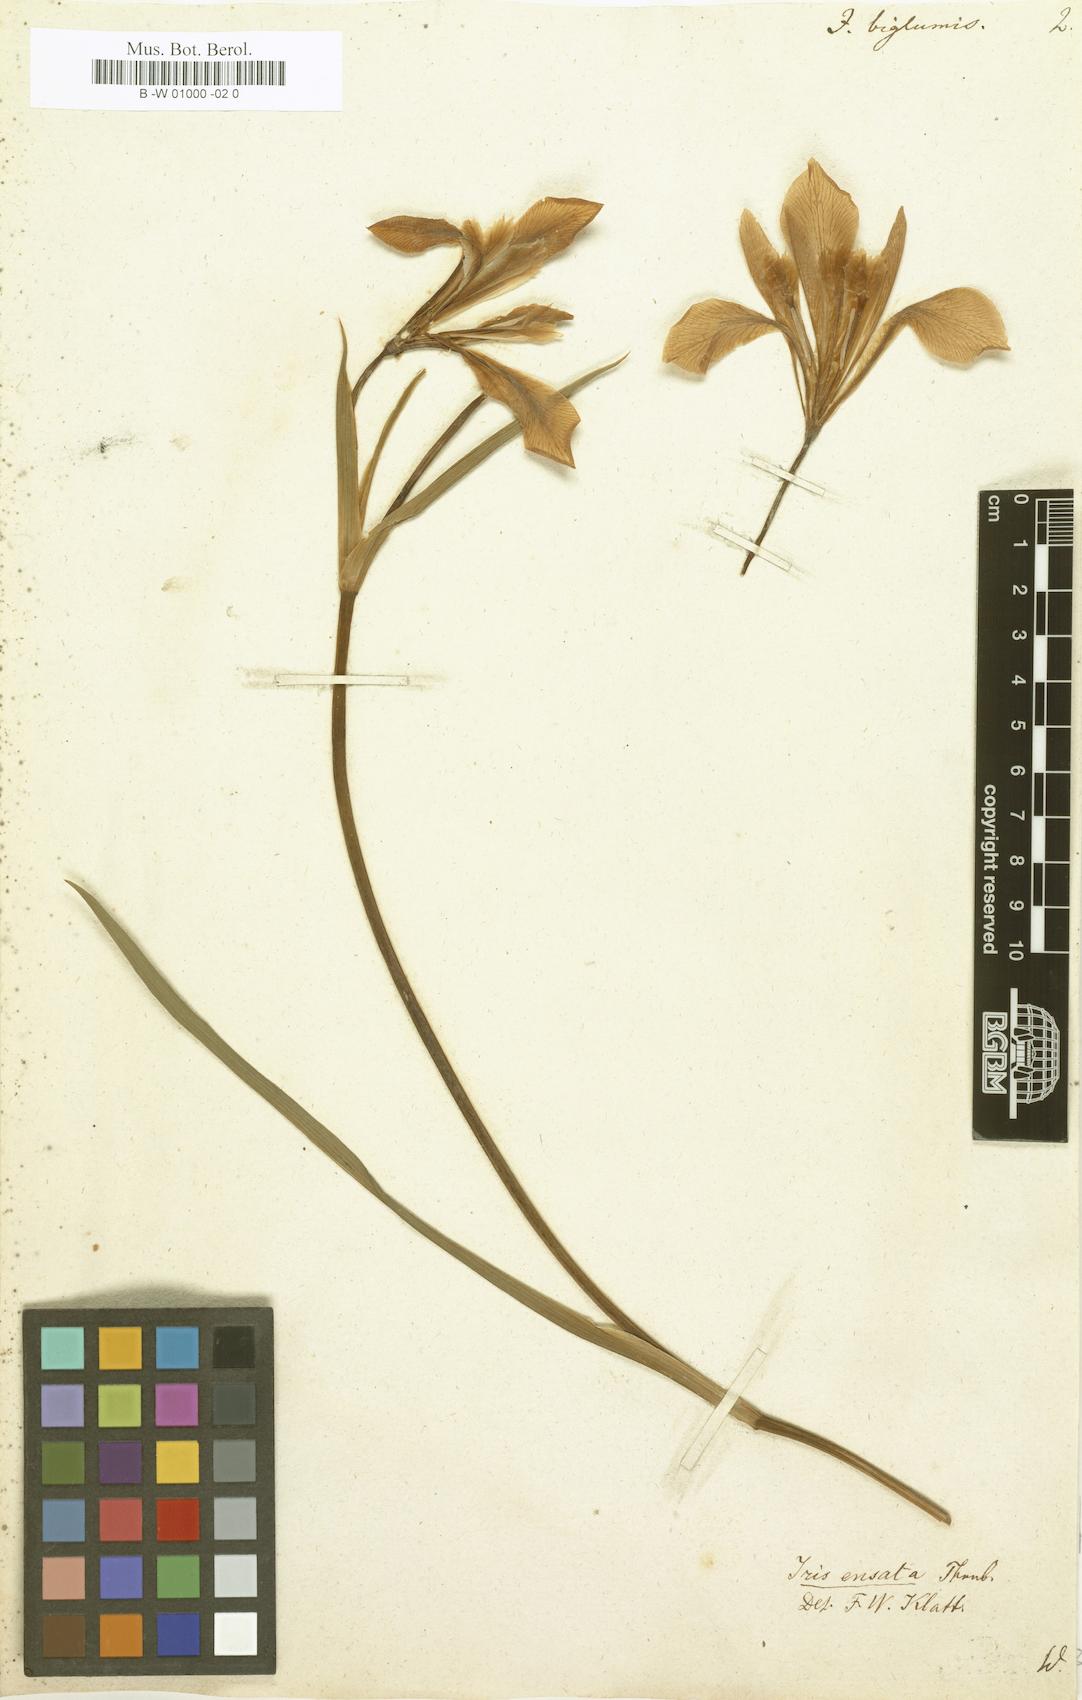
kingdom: Plantae
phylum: Tracheophyta
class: Liliopsida
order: Asparagales
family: Iridaceae
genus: Iris
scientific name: Iris lactea
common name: White-flower chinese iris
